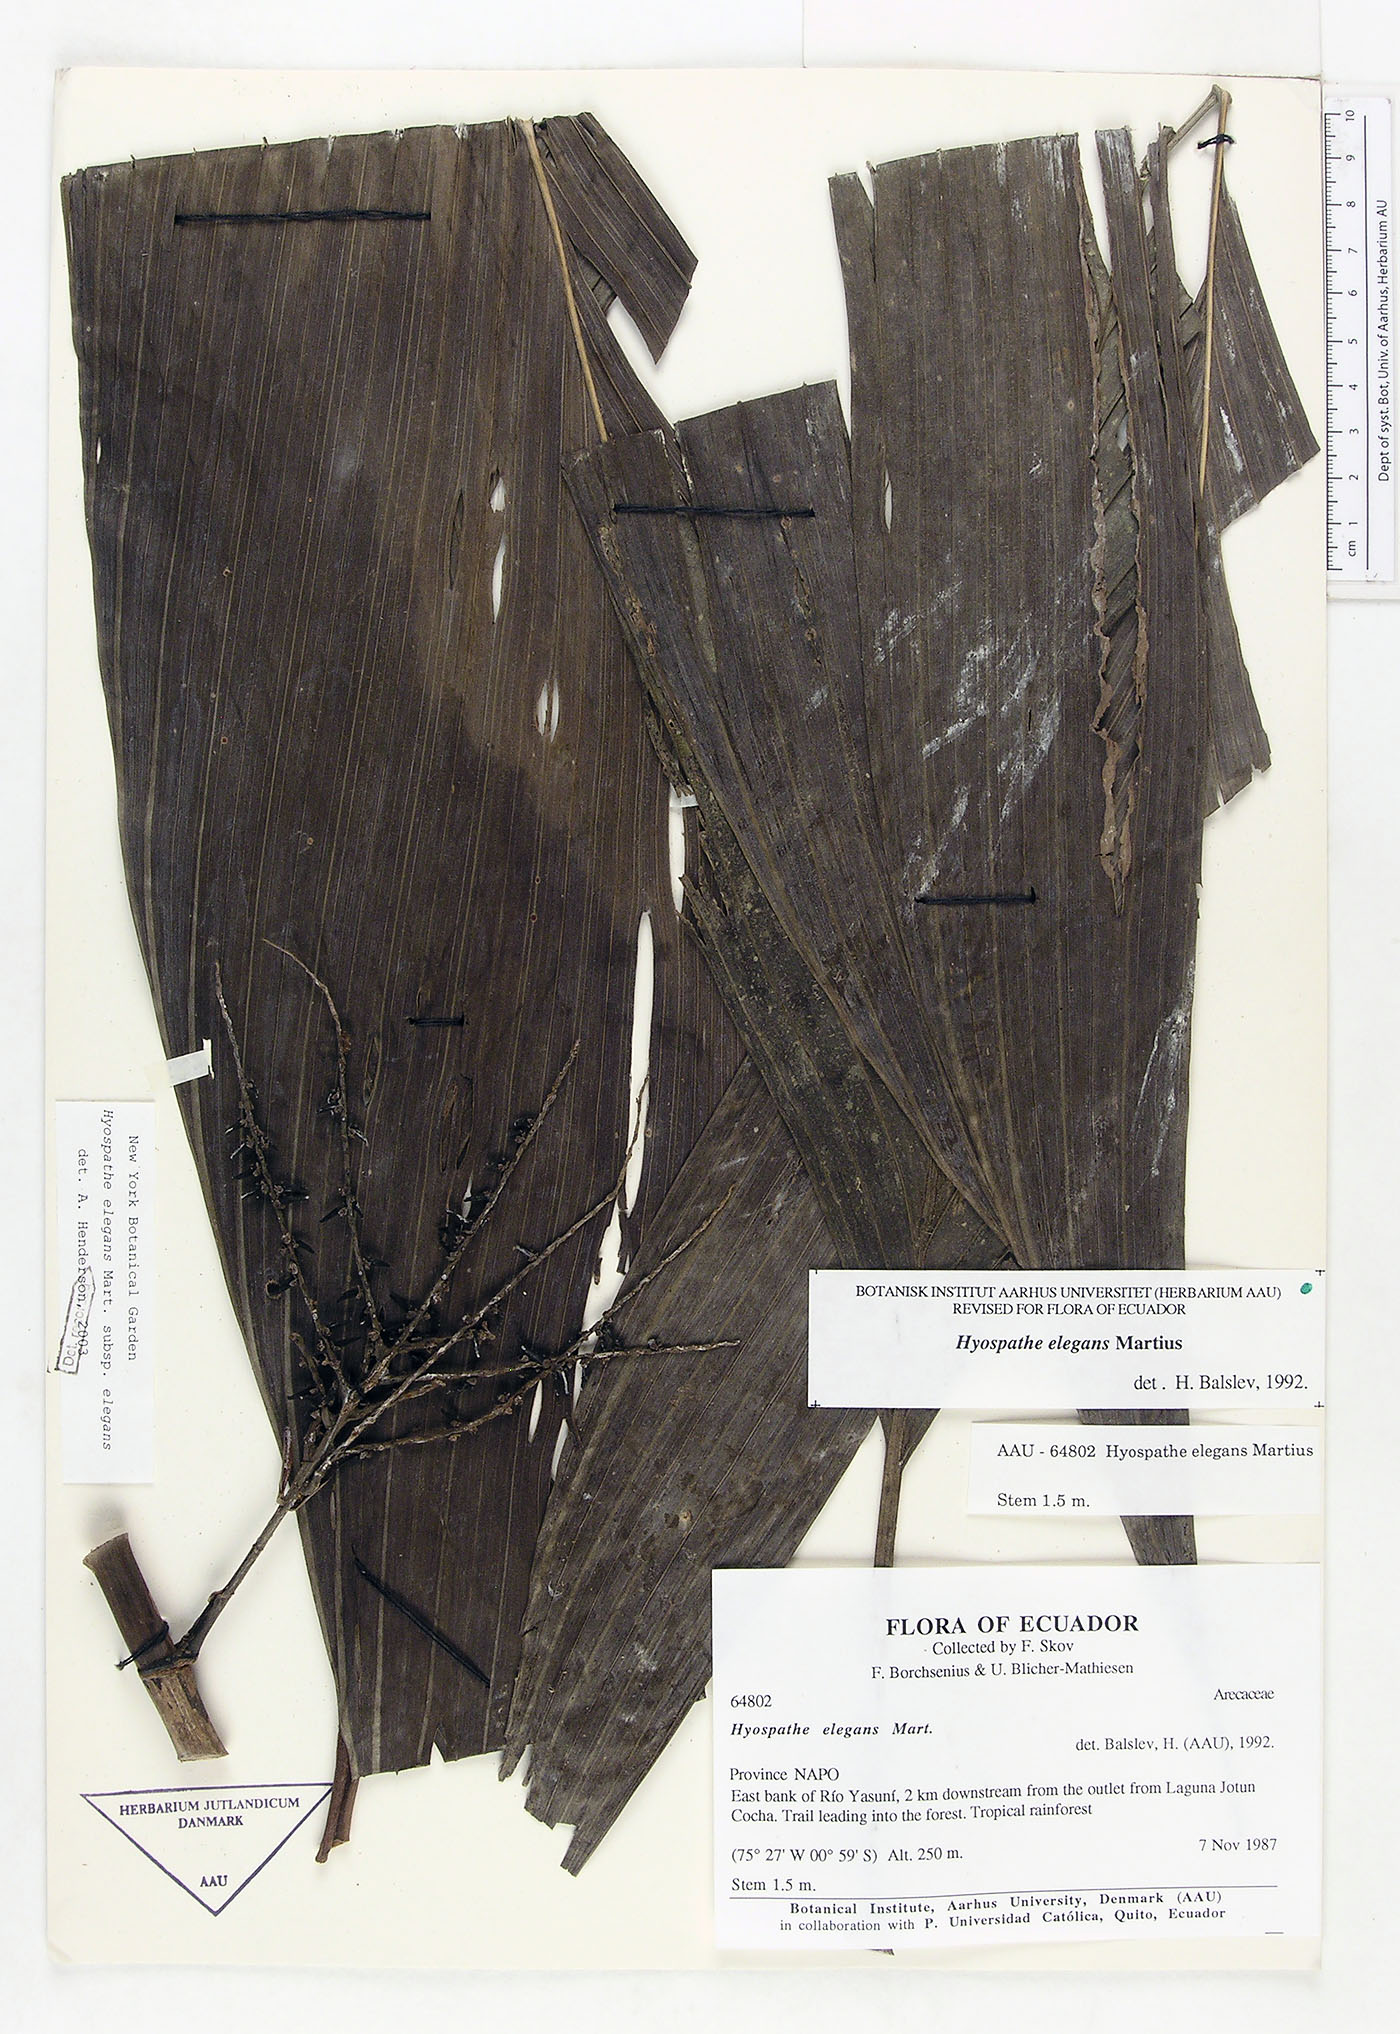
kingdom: Plantae
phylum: Tracheophyta
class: Liliopsida
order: Arecales
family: Arecaceae
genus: Hyospathe
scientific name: Hyospathe elegans
